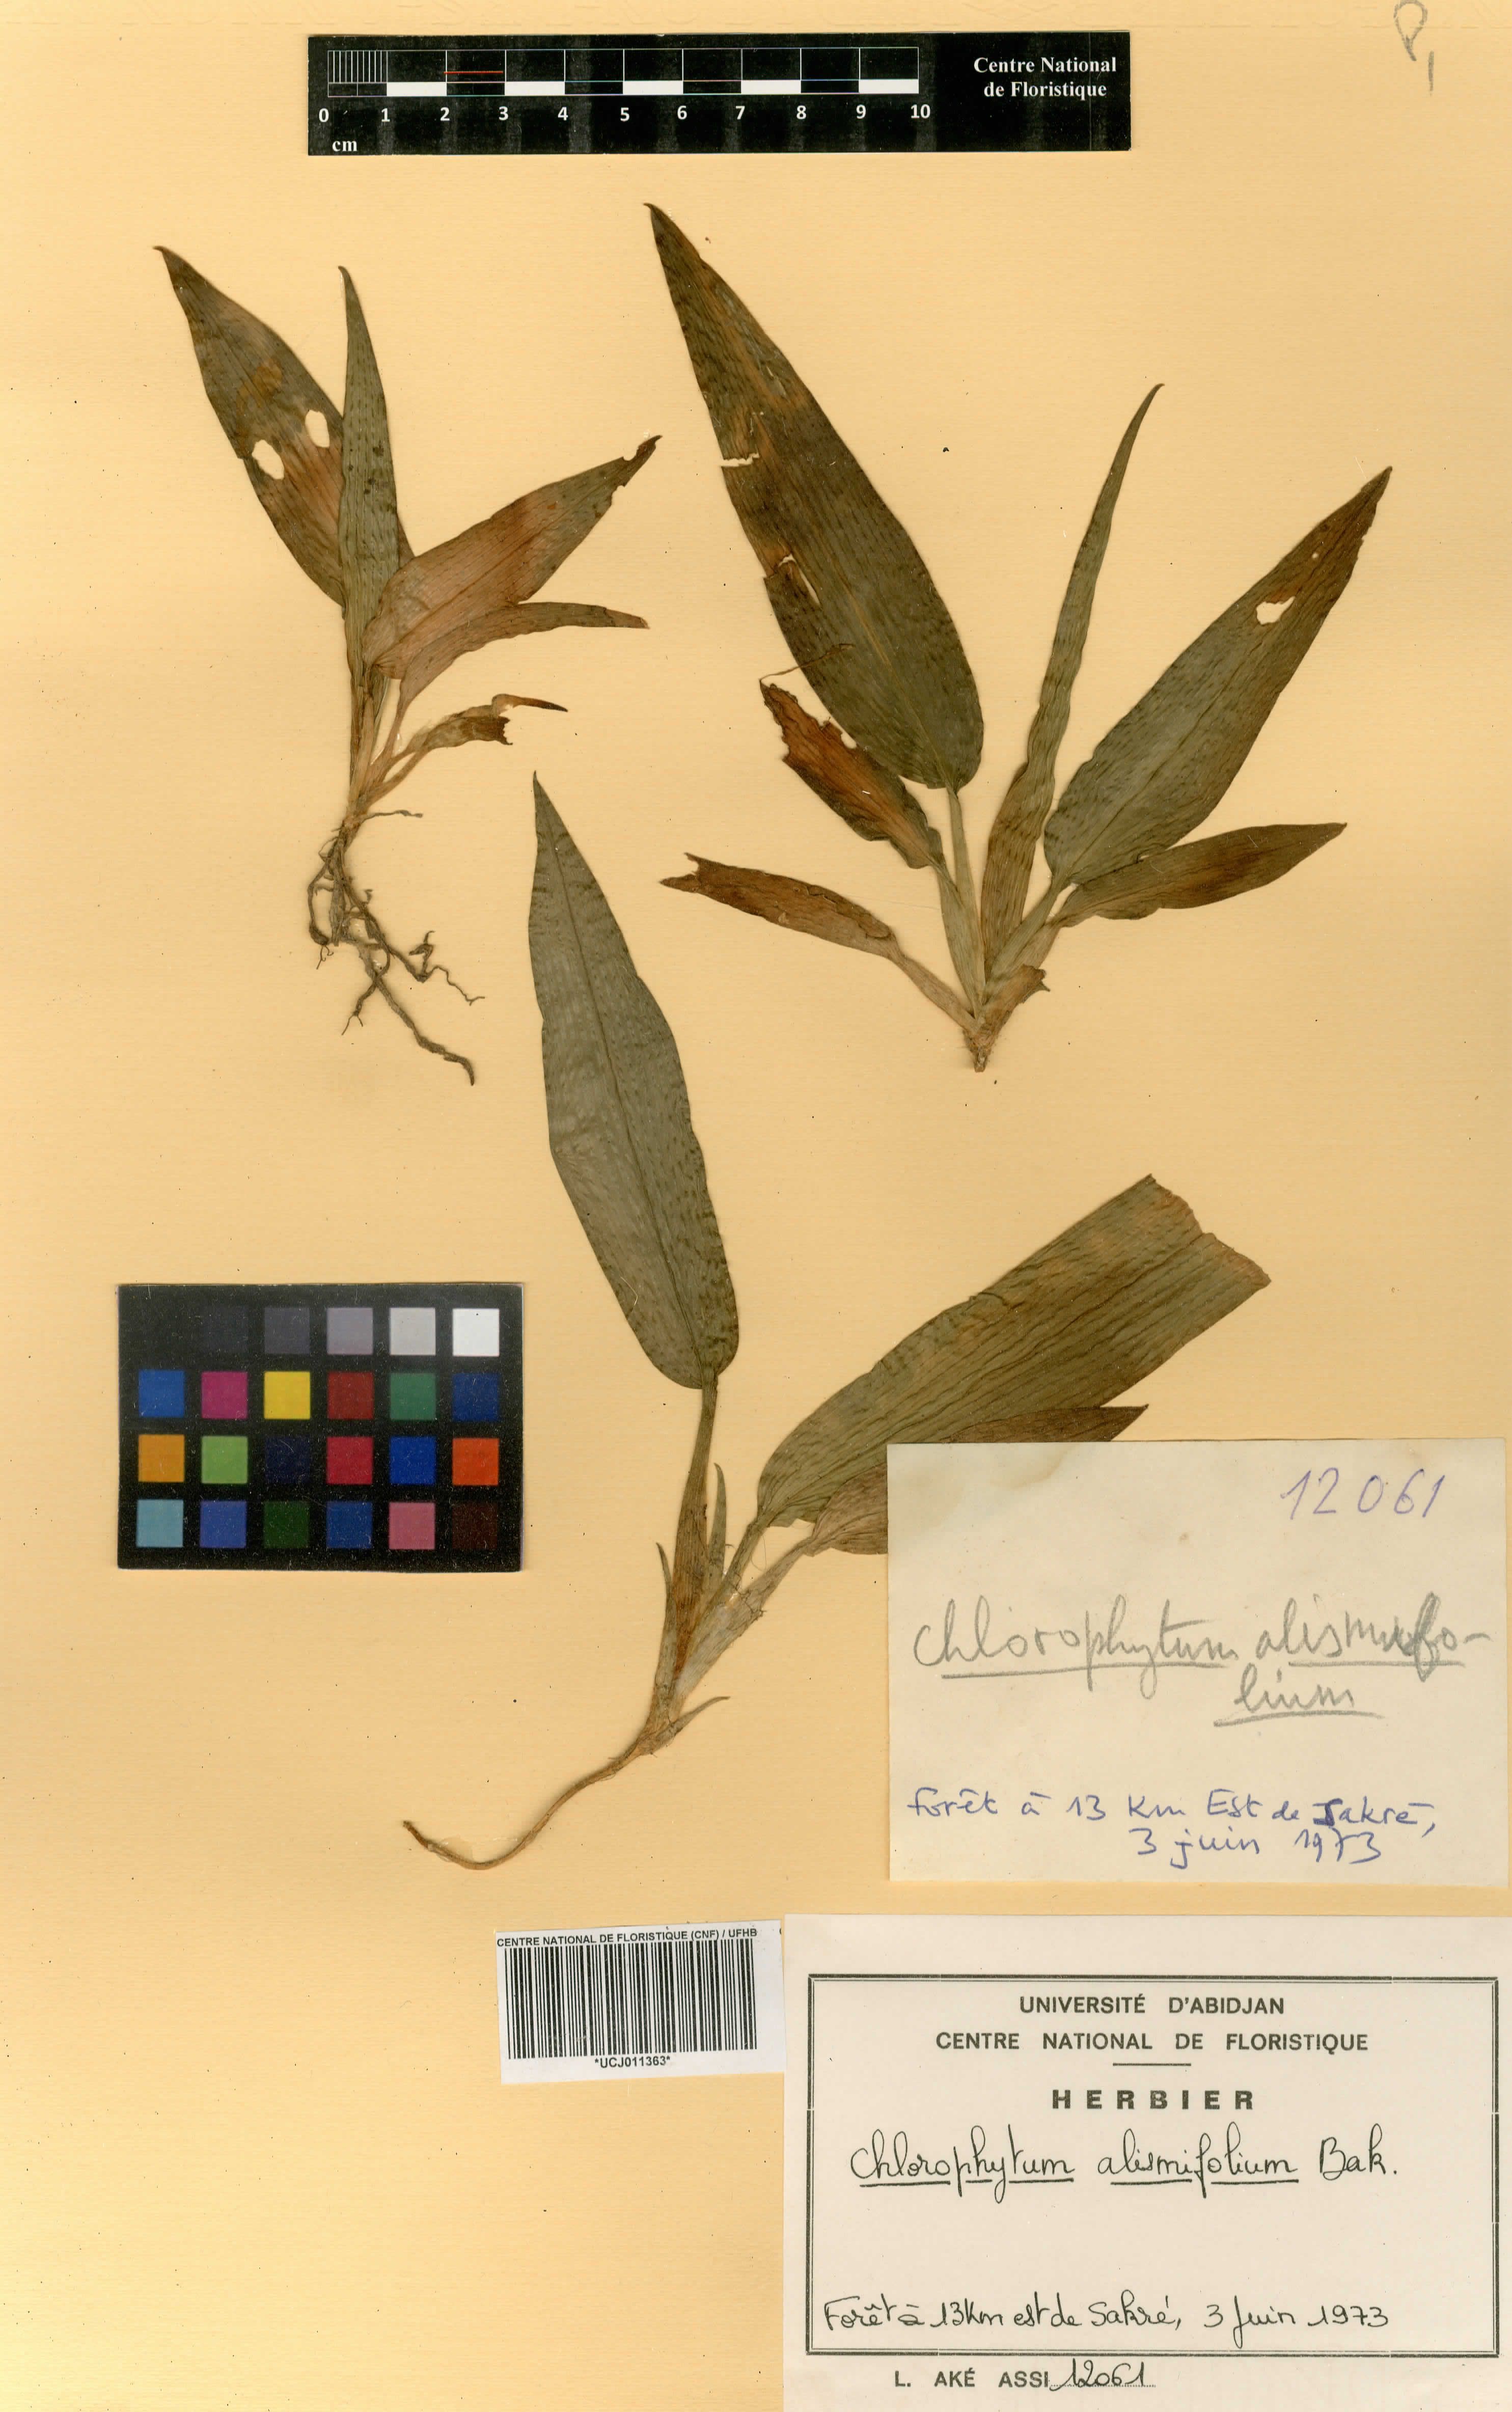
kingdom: Plantae
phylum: Tracheophyta
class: Liliopsida
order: Asparagales
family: Asparagaceae
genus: Chlorophytum
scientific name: Chlorophytum alismifolium
